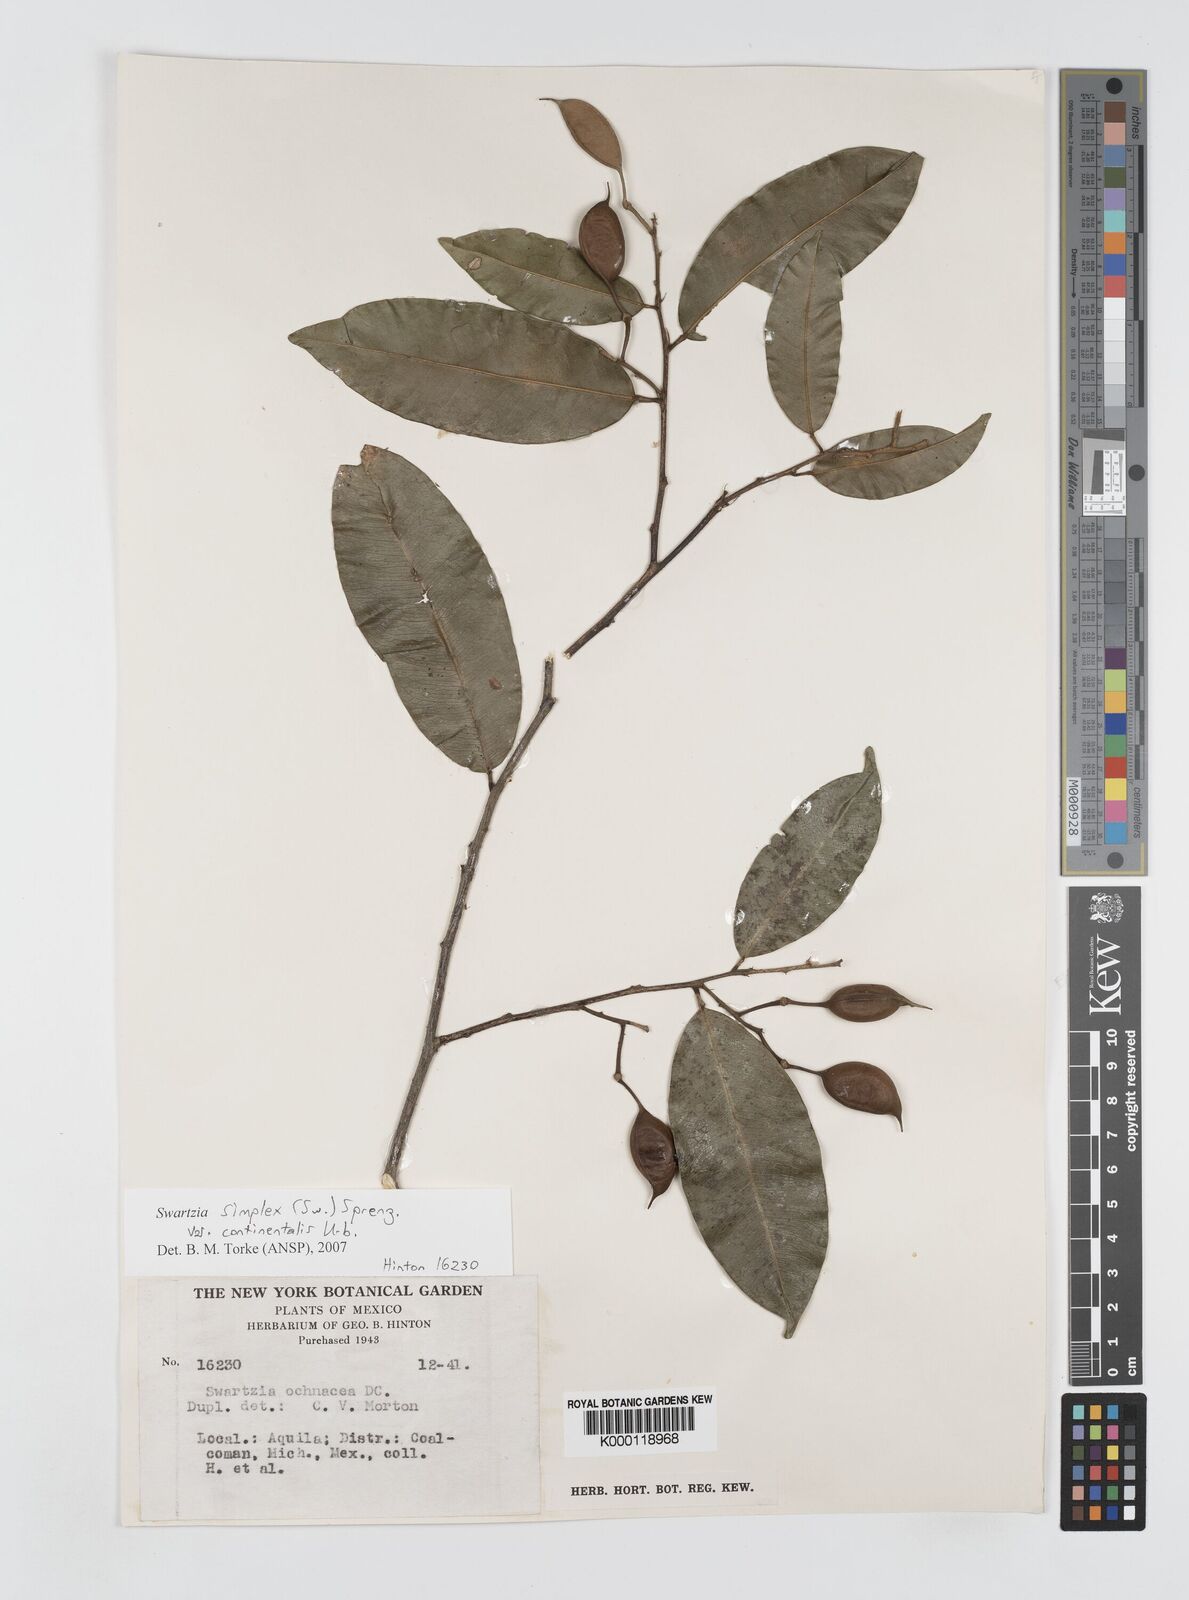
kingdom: Plantae
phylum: Tracheophyta
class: Magnoliopsida
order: Fabales
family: Fabaceae
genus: Swartzia
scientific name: Swartzia simplex
